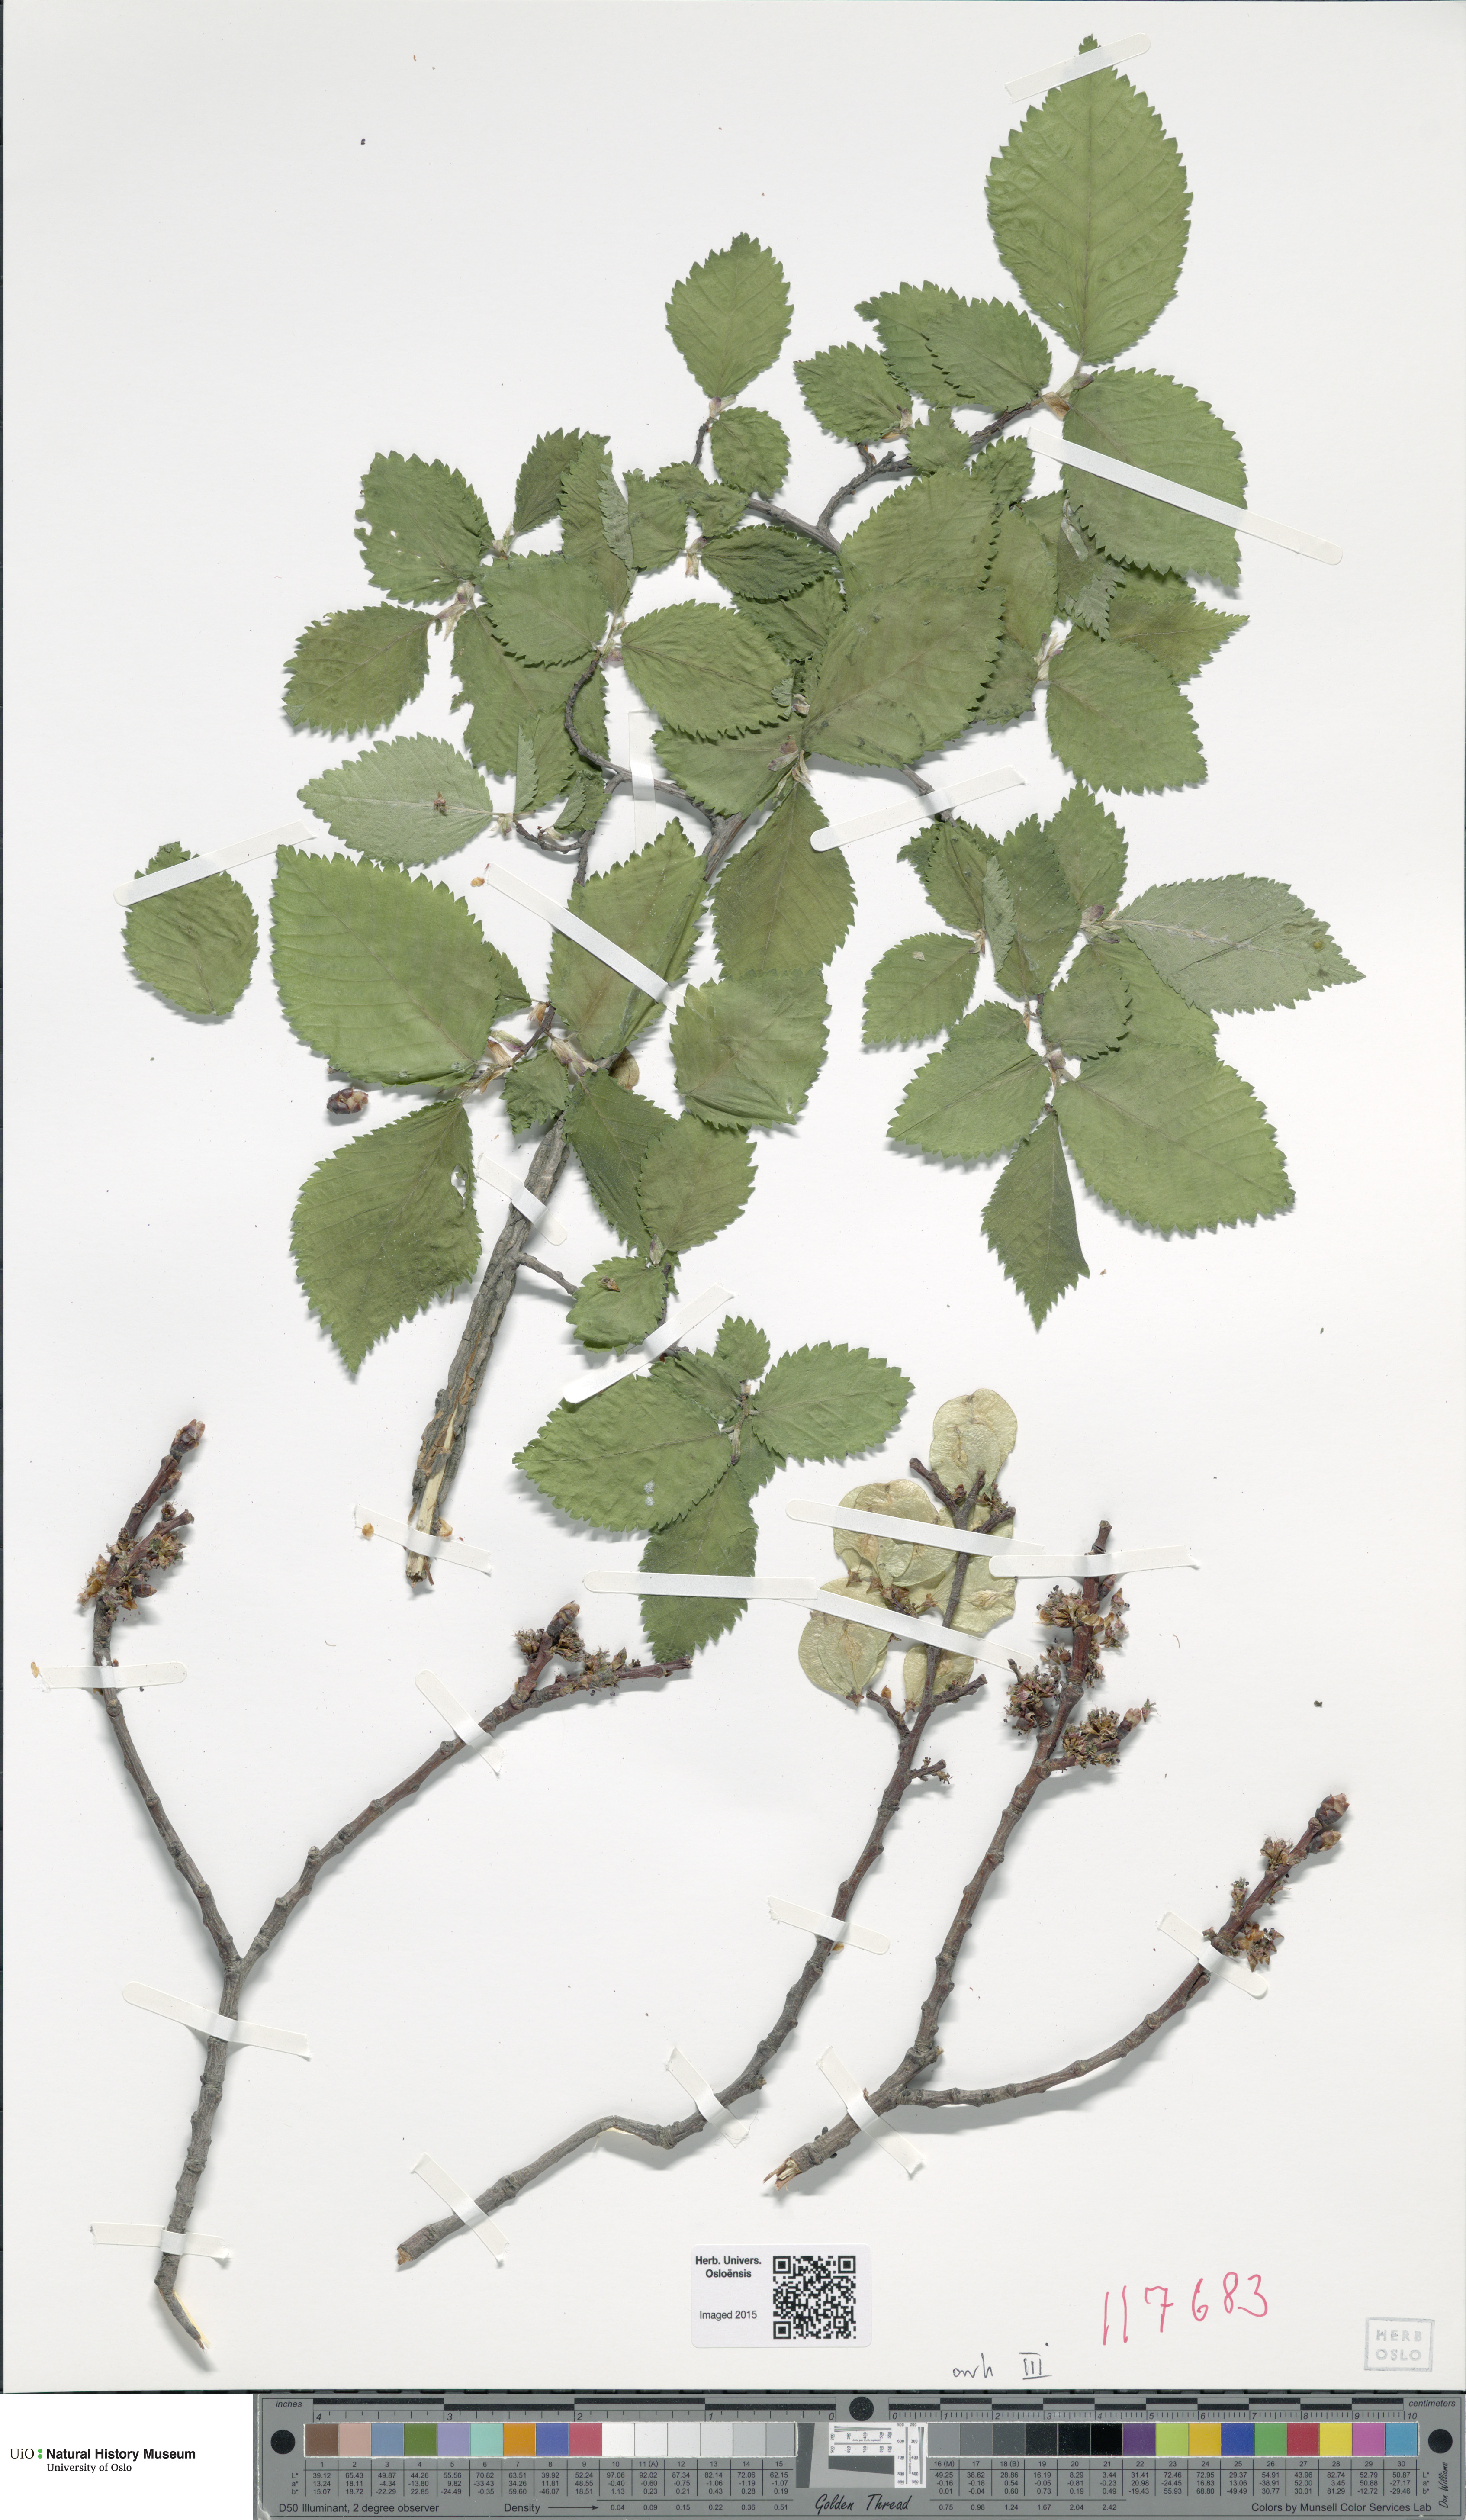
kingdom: Plantae
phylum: Tracheophyta
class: Magnoliopsida
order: Rosales
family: Ulmaceae
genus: Ulmus
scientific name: Ulmus minor
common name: Small-leaved elm
